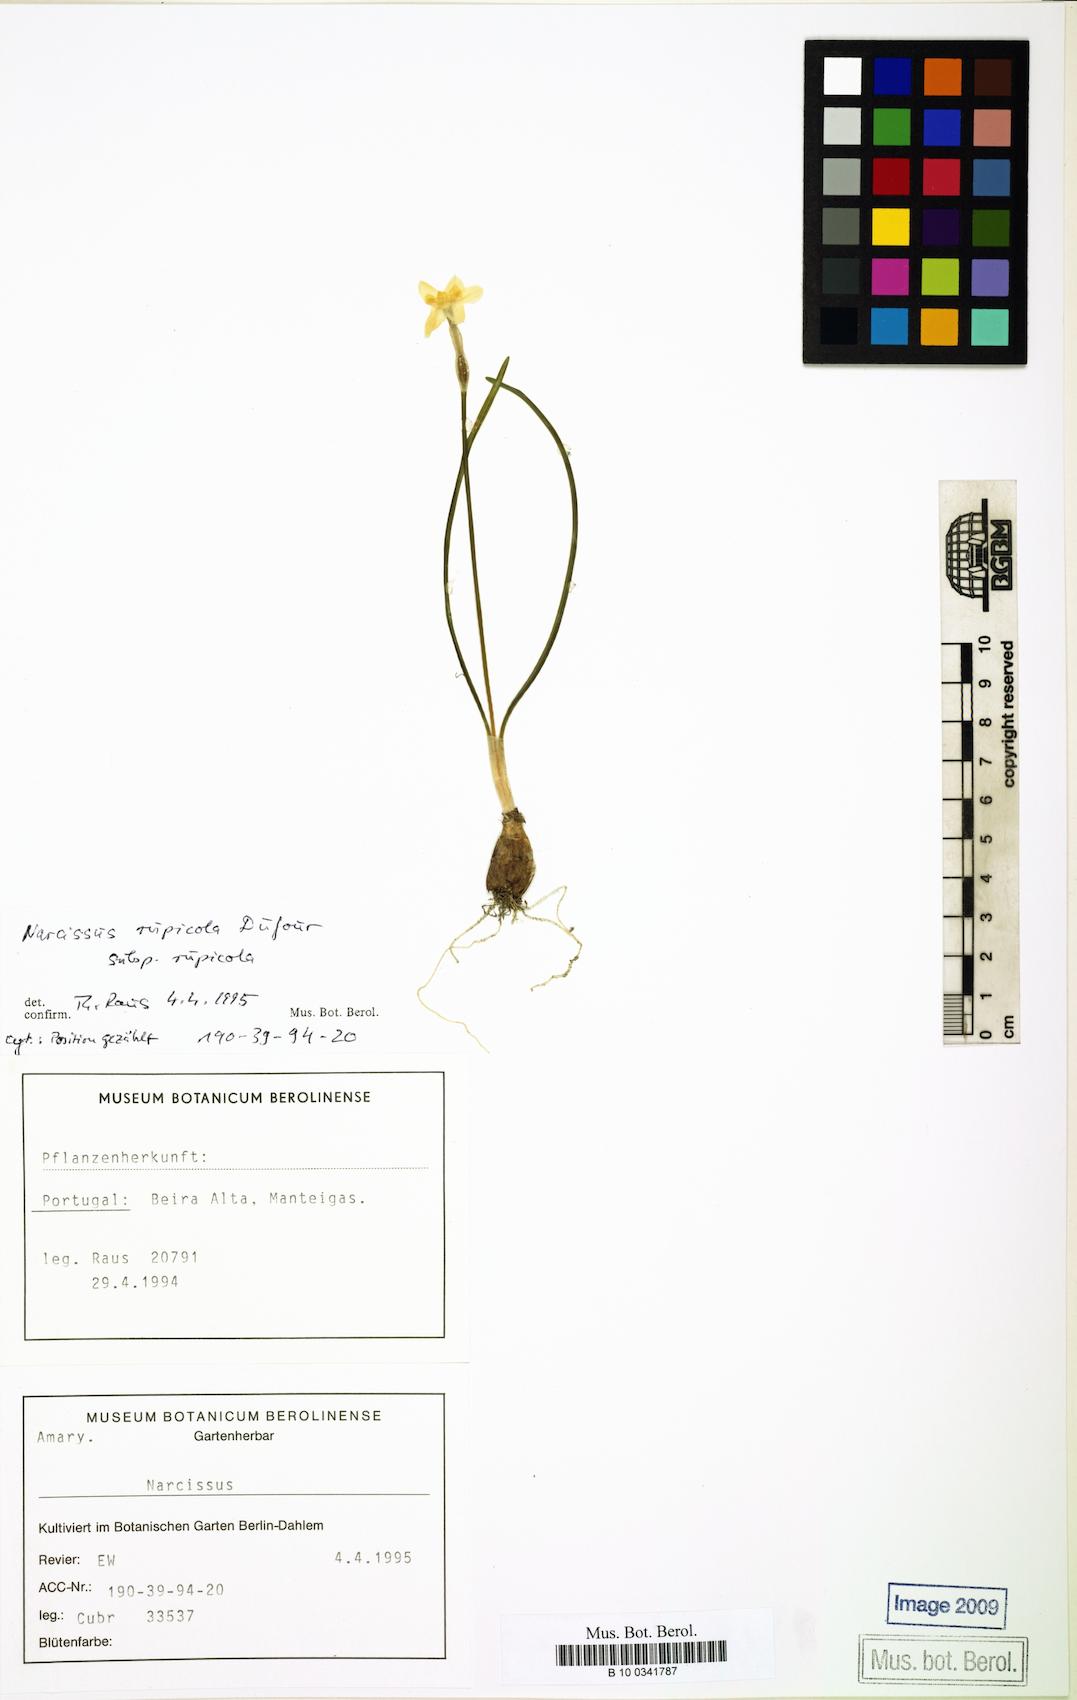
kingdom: Plantae
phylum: Tracheophyta
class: Liliopsida
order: Asparagales
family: Amaryllidaceae
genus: Narcissus
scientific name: Narcissus rupicola
